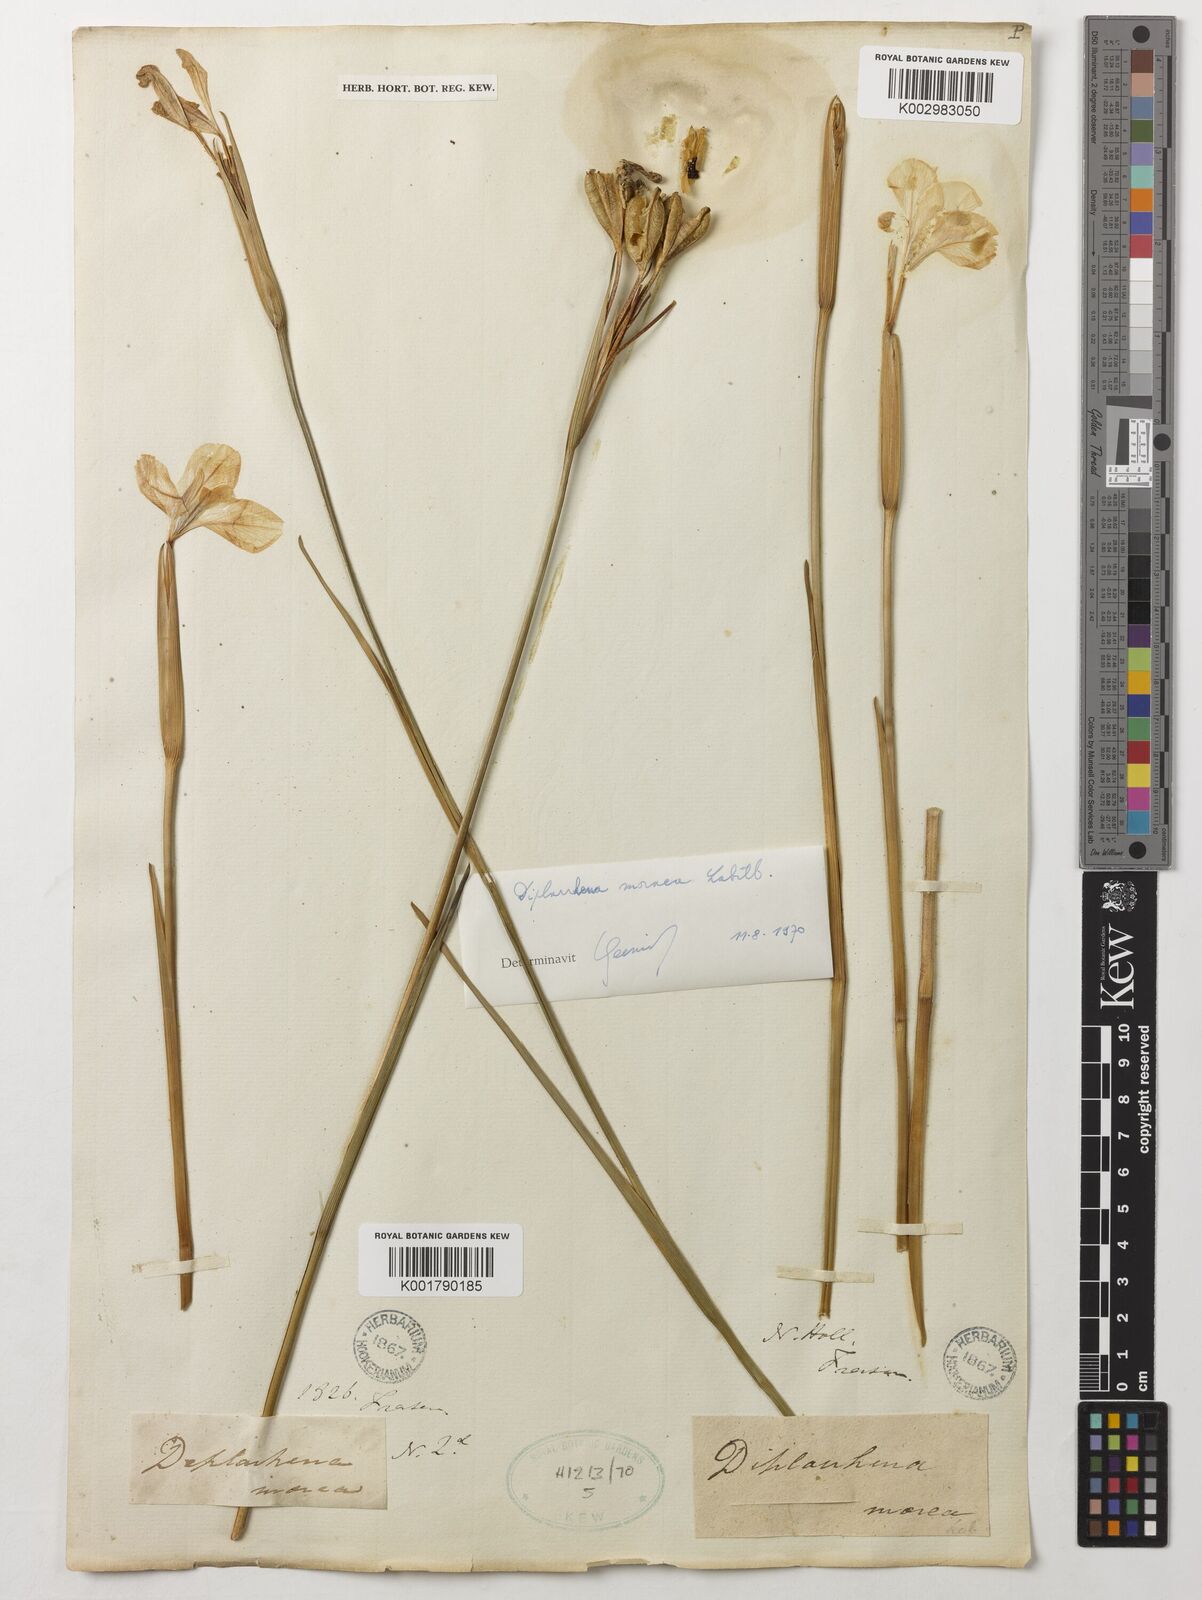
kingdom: Plantae
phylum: Tracheophyta
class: Liliopsida
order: Asparagales
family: Iridaceae
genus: Diplarrena
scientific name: Diplarrena moraea
